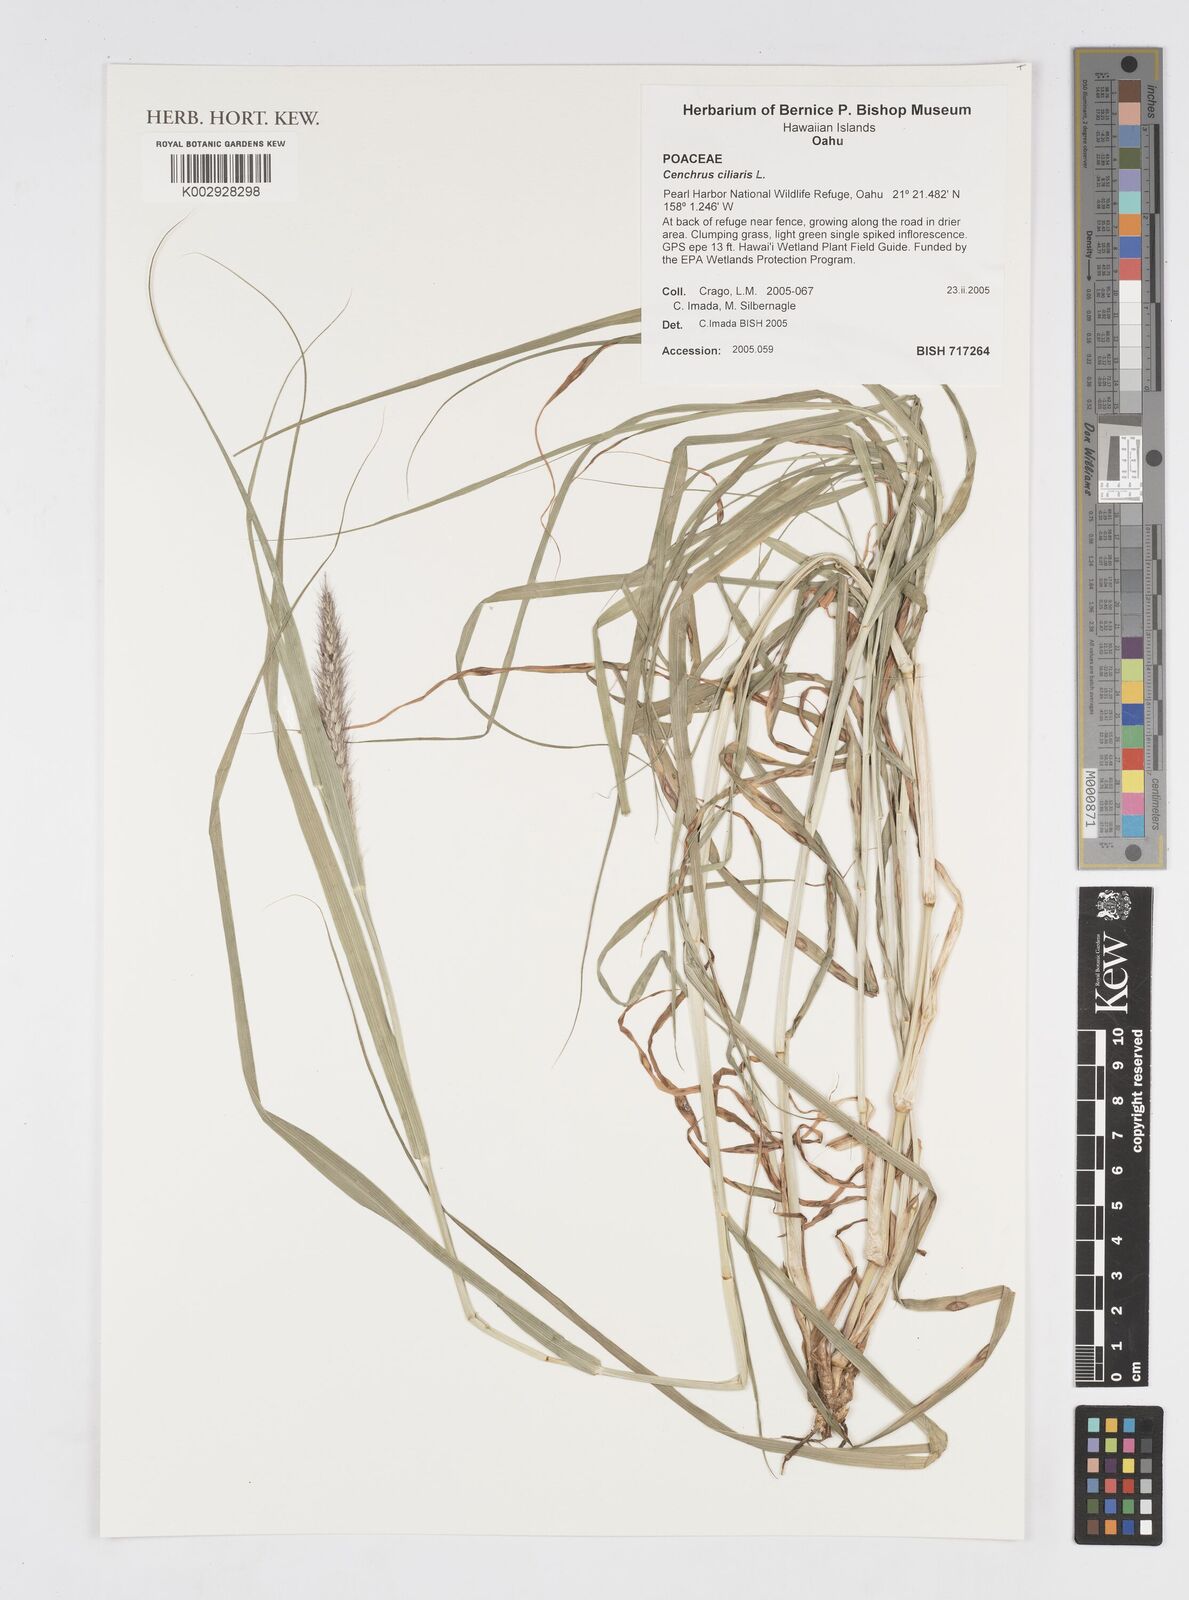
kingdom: Plantae
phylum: Tracheophyta
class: Liliopsida
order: Poales
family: Poaceae
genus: Cenchrus
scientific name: Cenchrus ciliaris
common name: Buffelgrass
